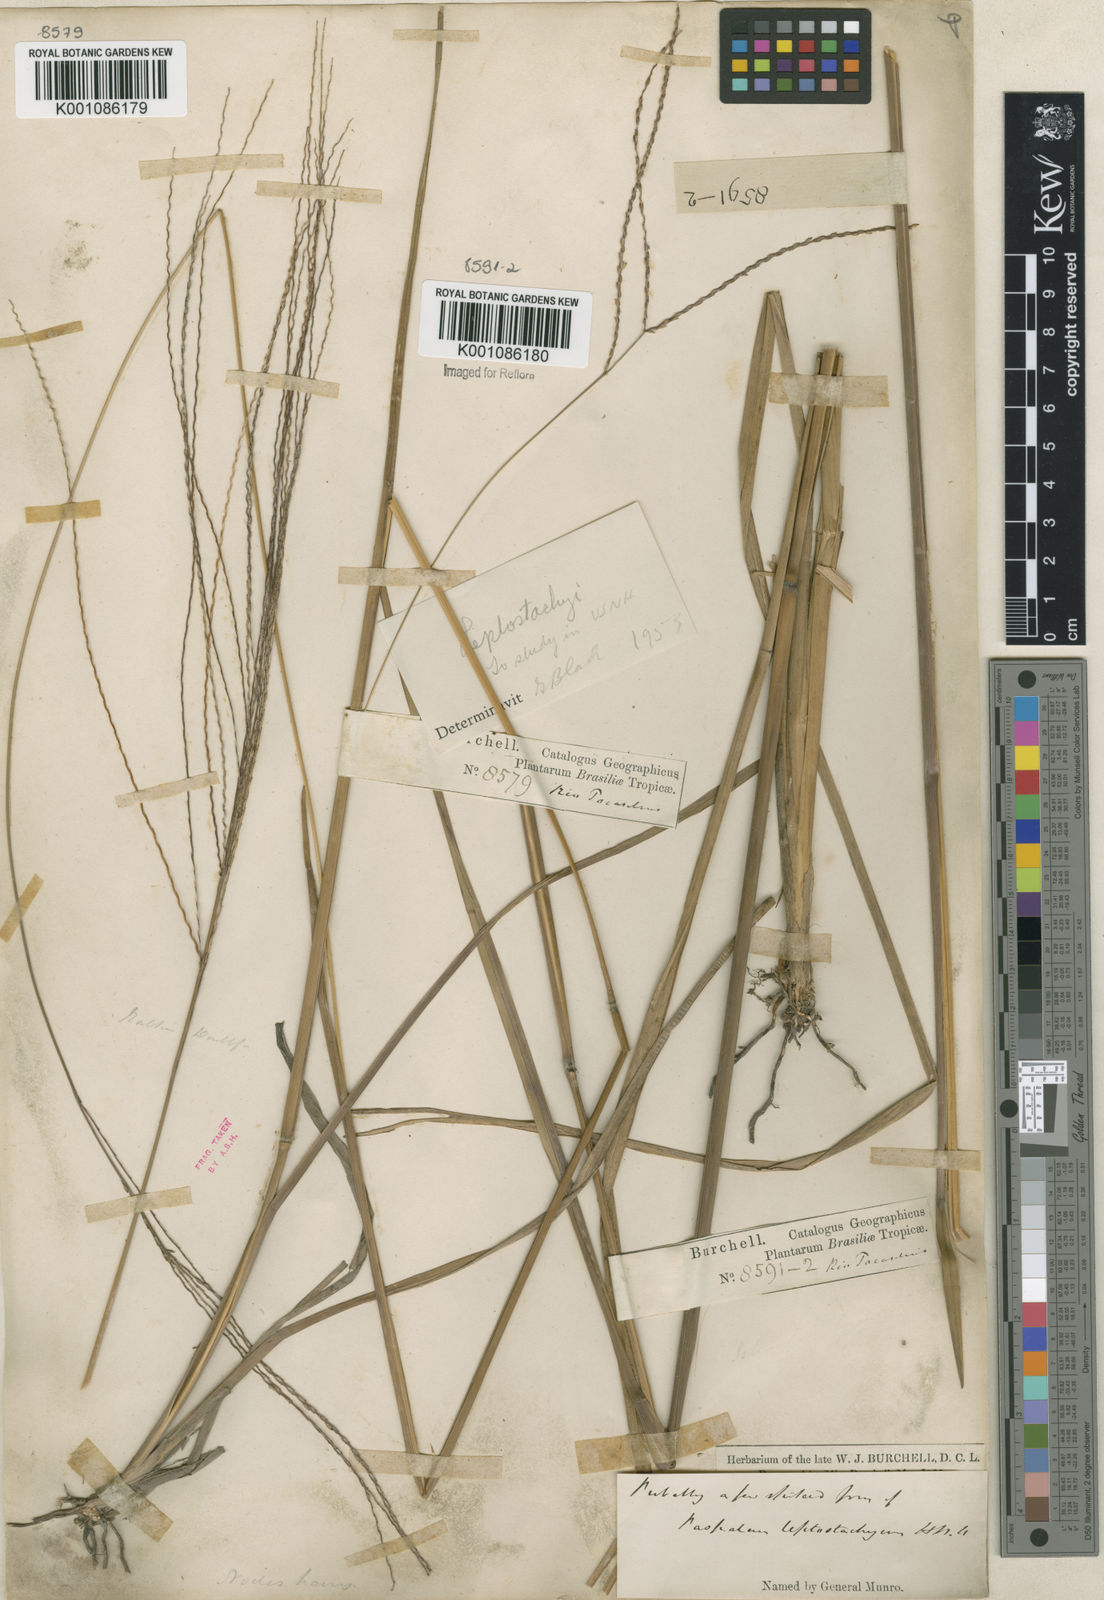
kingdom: Plantae
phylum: Tracheophyta
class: Liliopsida
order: Poales
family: Poaceae
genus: Axonopus
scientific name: Axonopus
